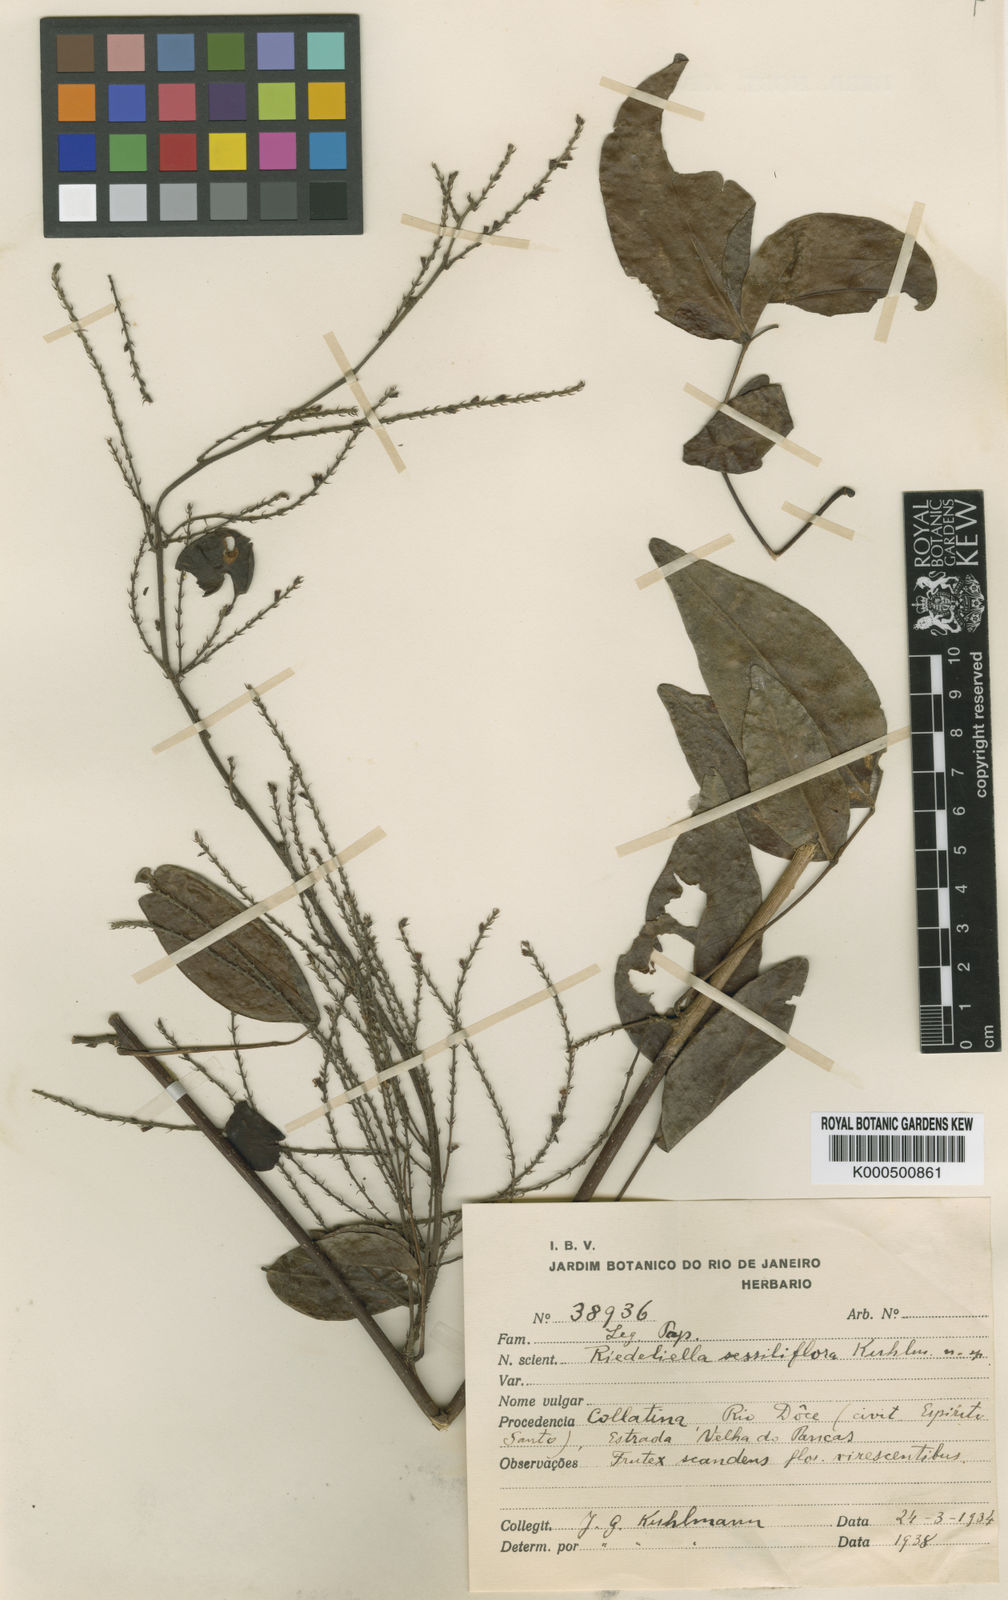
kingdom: Plantae
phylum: Tracheophyta
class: Magnoliopsida
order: Fabales
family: Fabaceae
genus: Riedeliella
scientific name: Riedeliella sessiliflora
